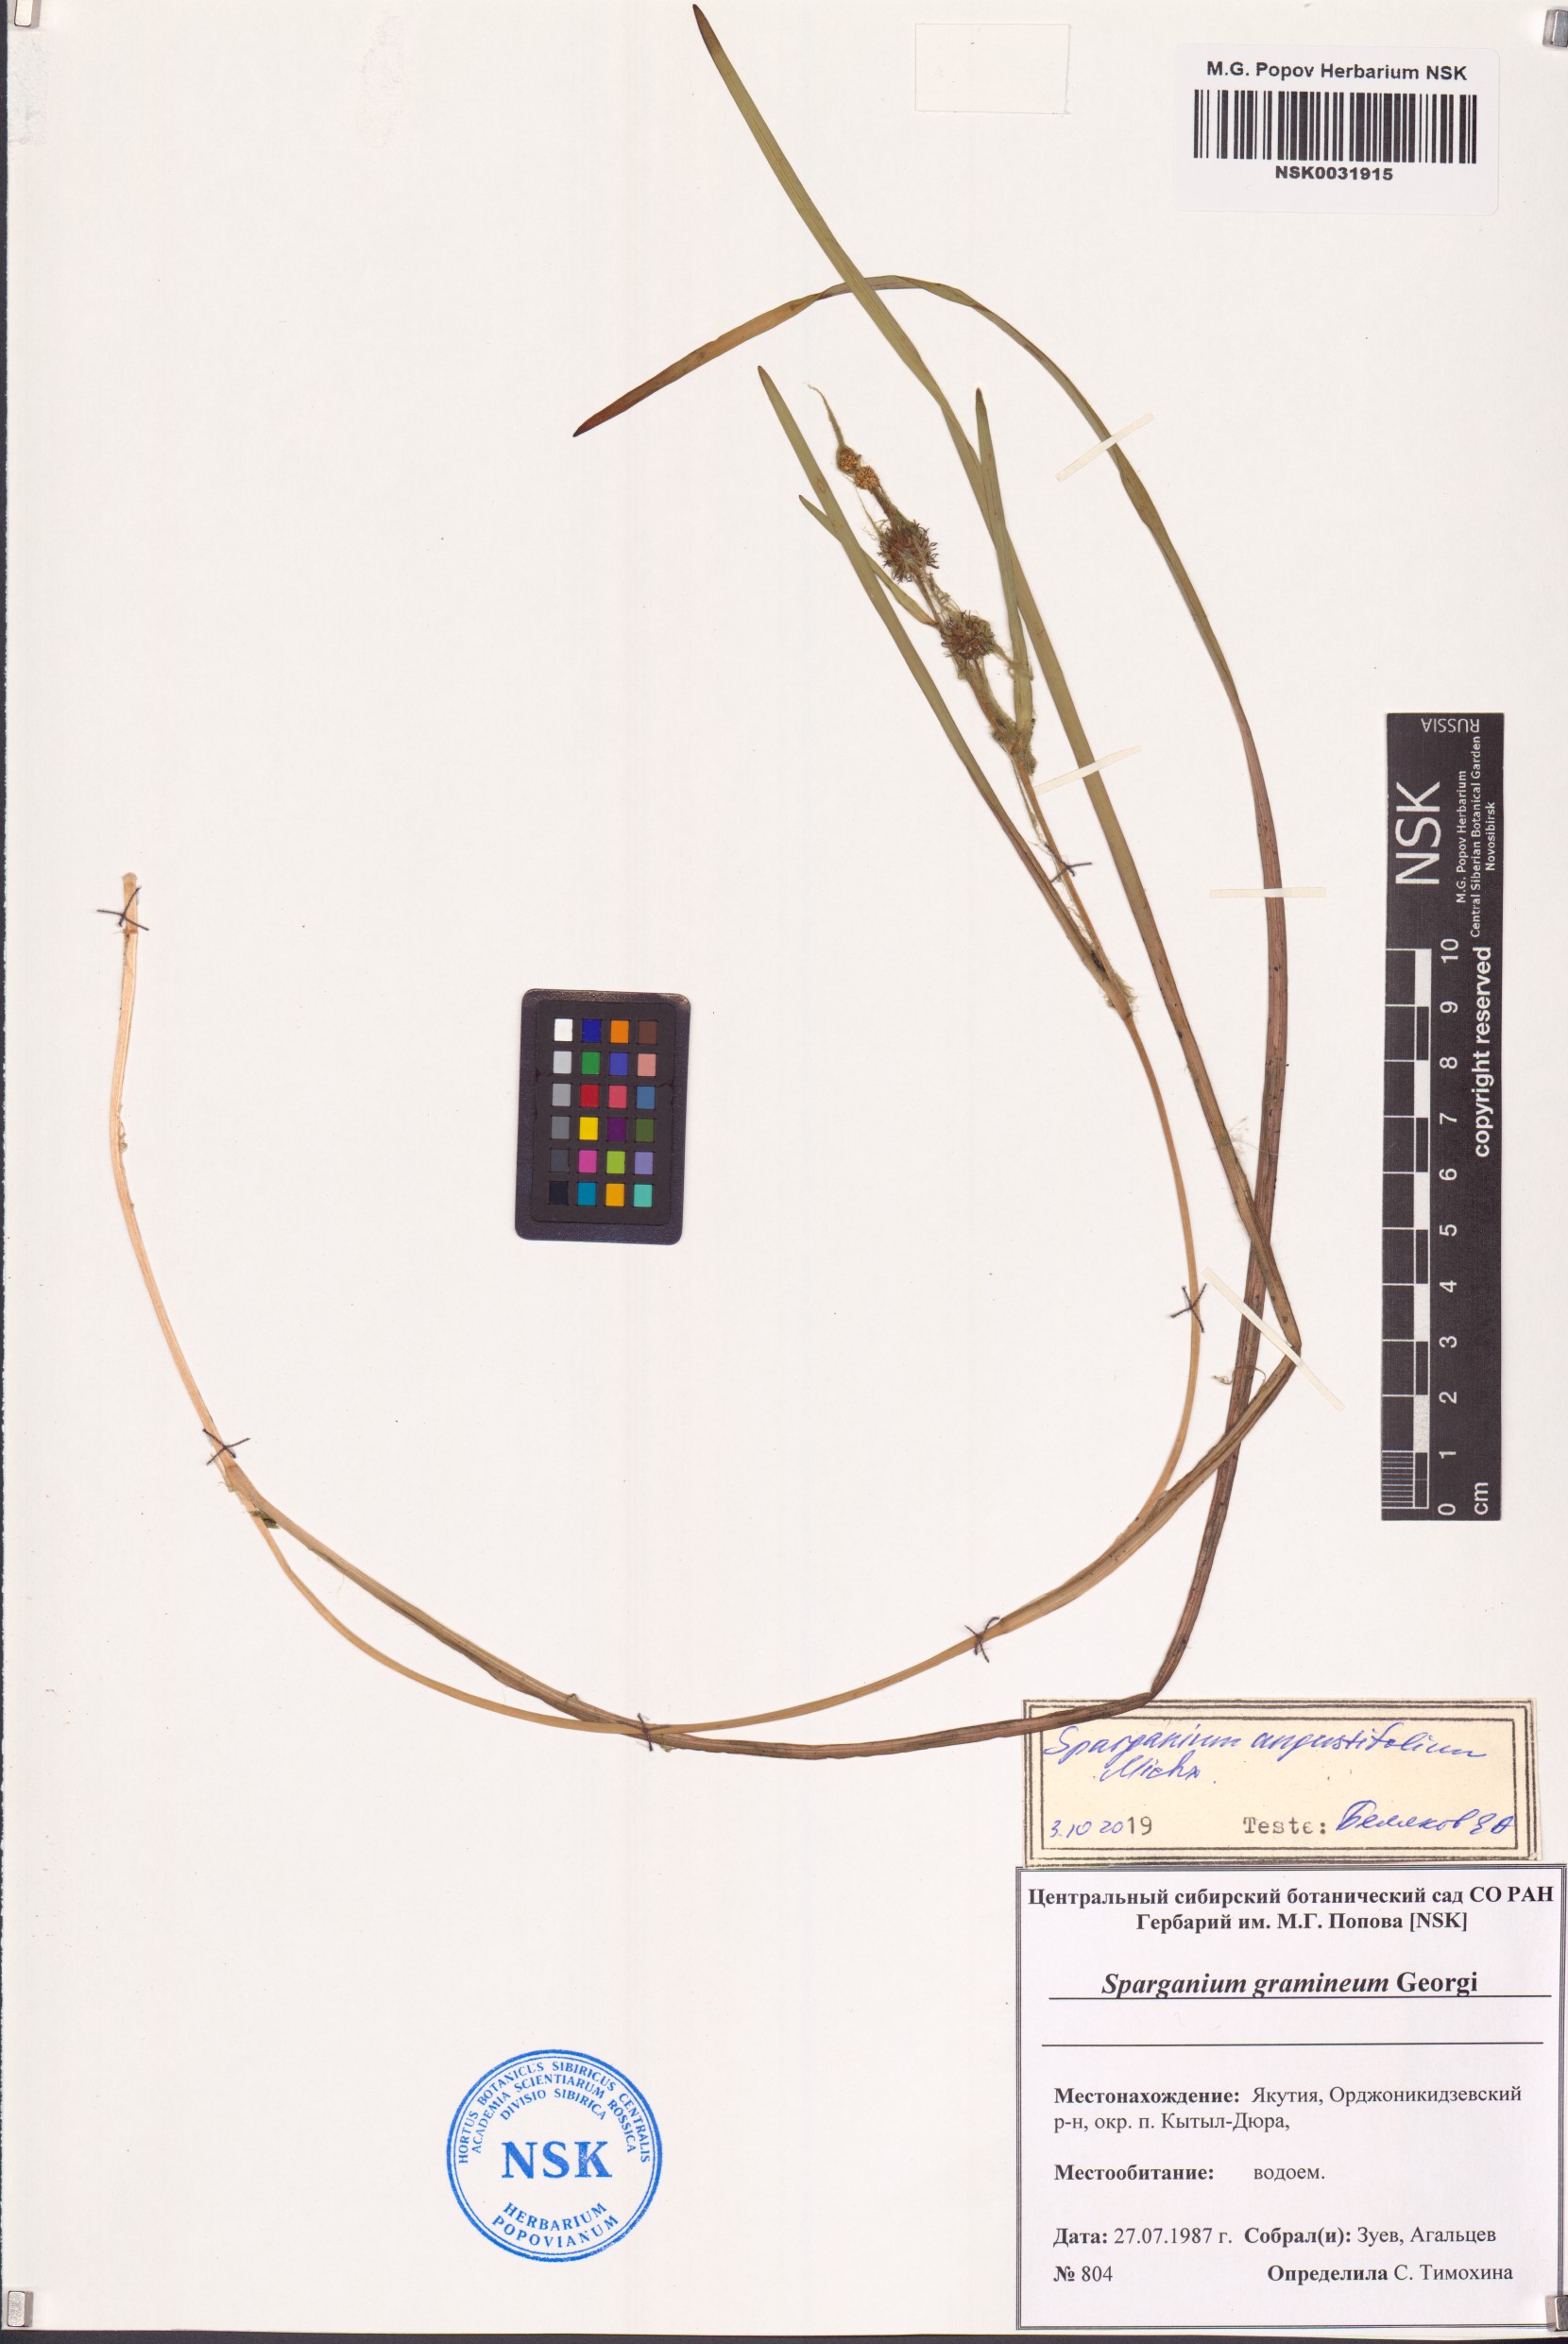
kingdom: Plantae
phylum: Tracheophyta
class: Liliopsida
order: Poales
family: Typhaceae
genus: Sparganium
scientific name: Sparganium angustifolium
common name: Floating bur-reed
